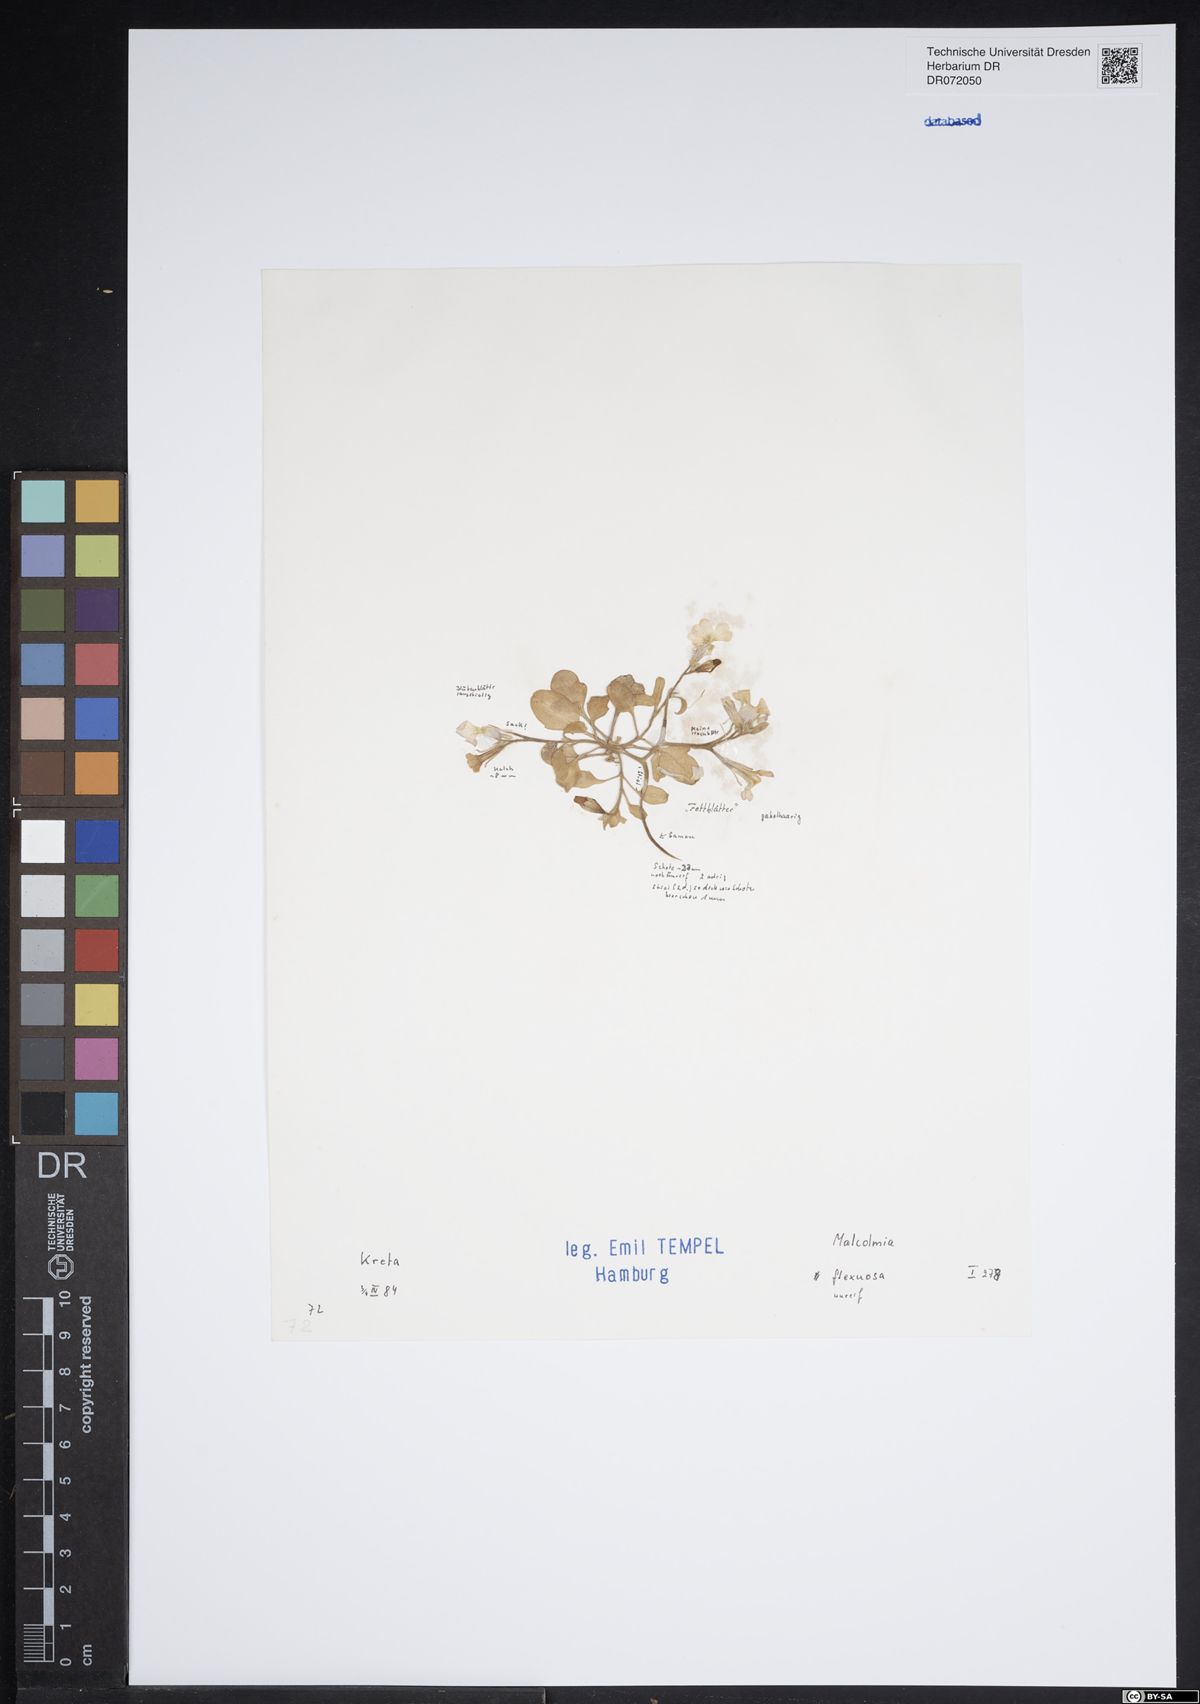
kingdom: Plantae
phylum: Tracheophyta
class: Magnoliopsida
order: Brassicales
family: Brassicaceae
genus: Malcolmia
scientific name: Malcolmia flexuosa
